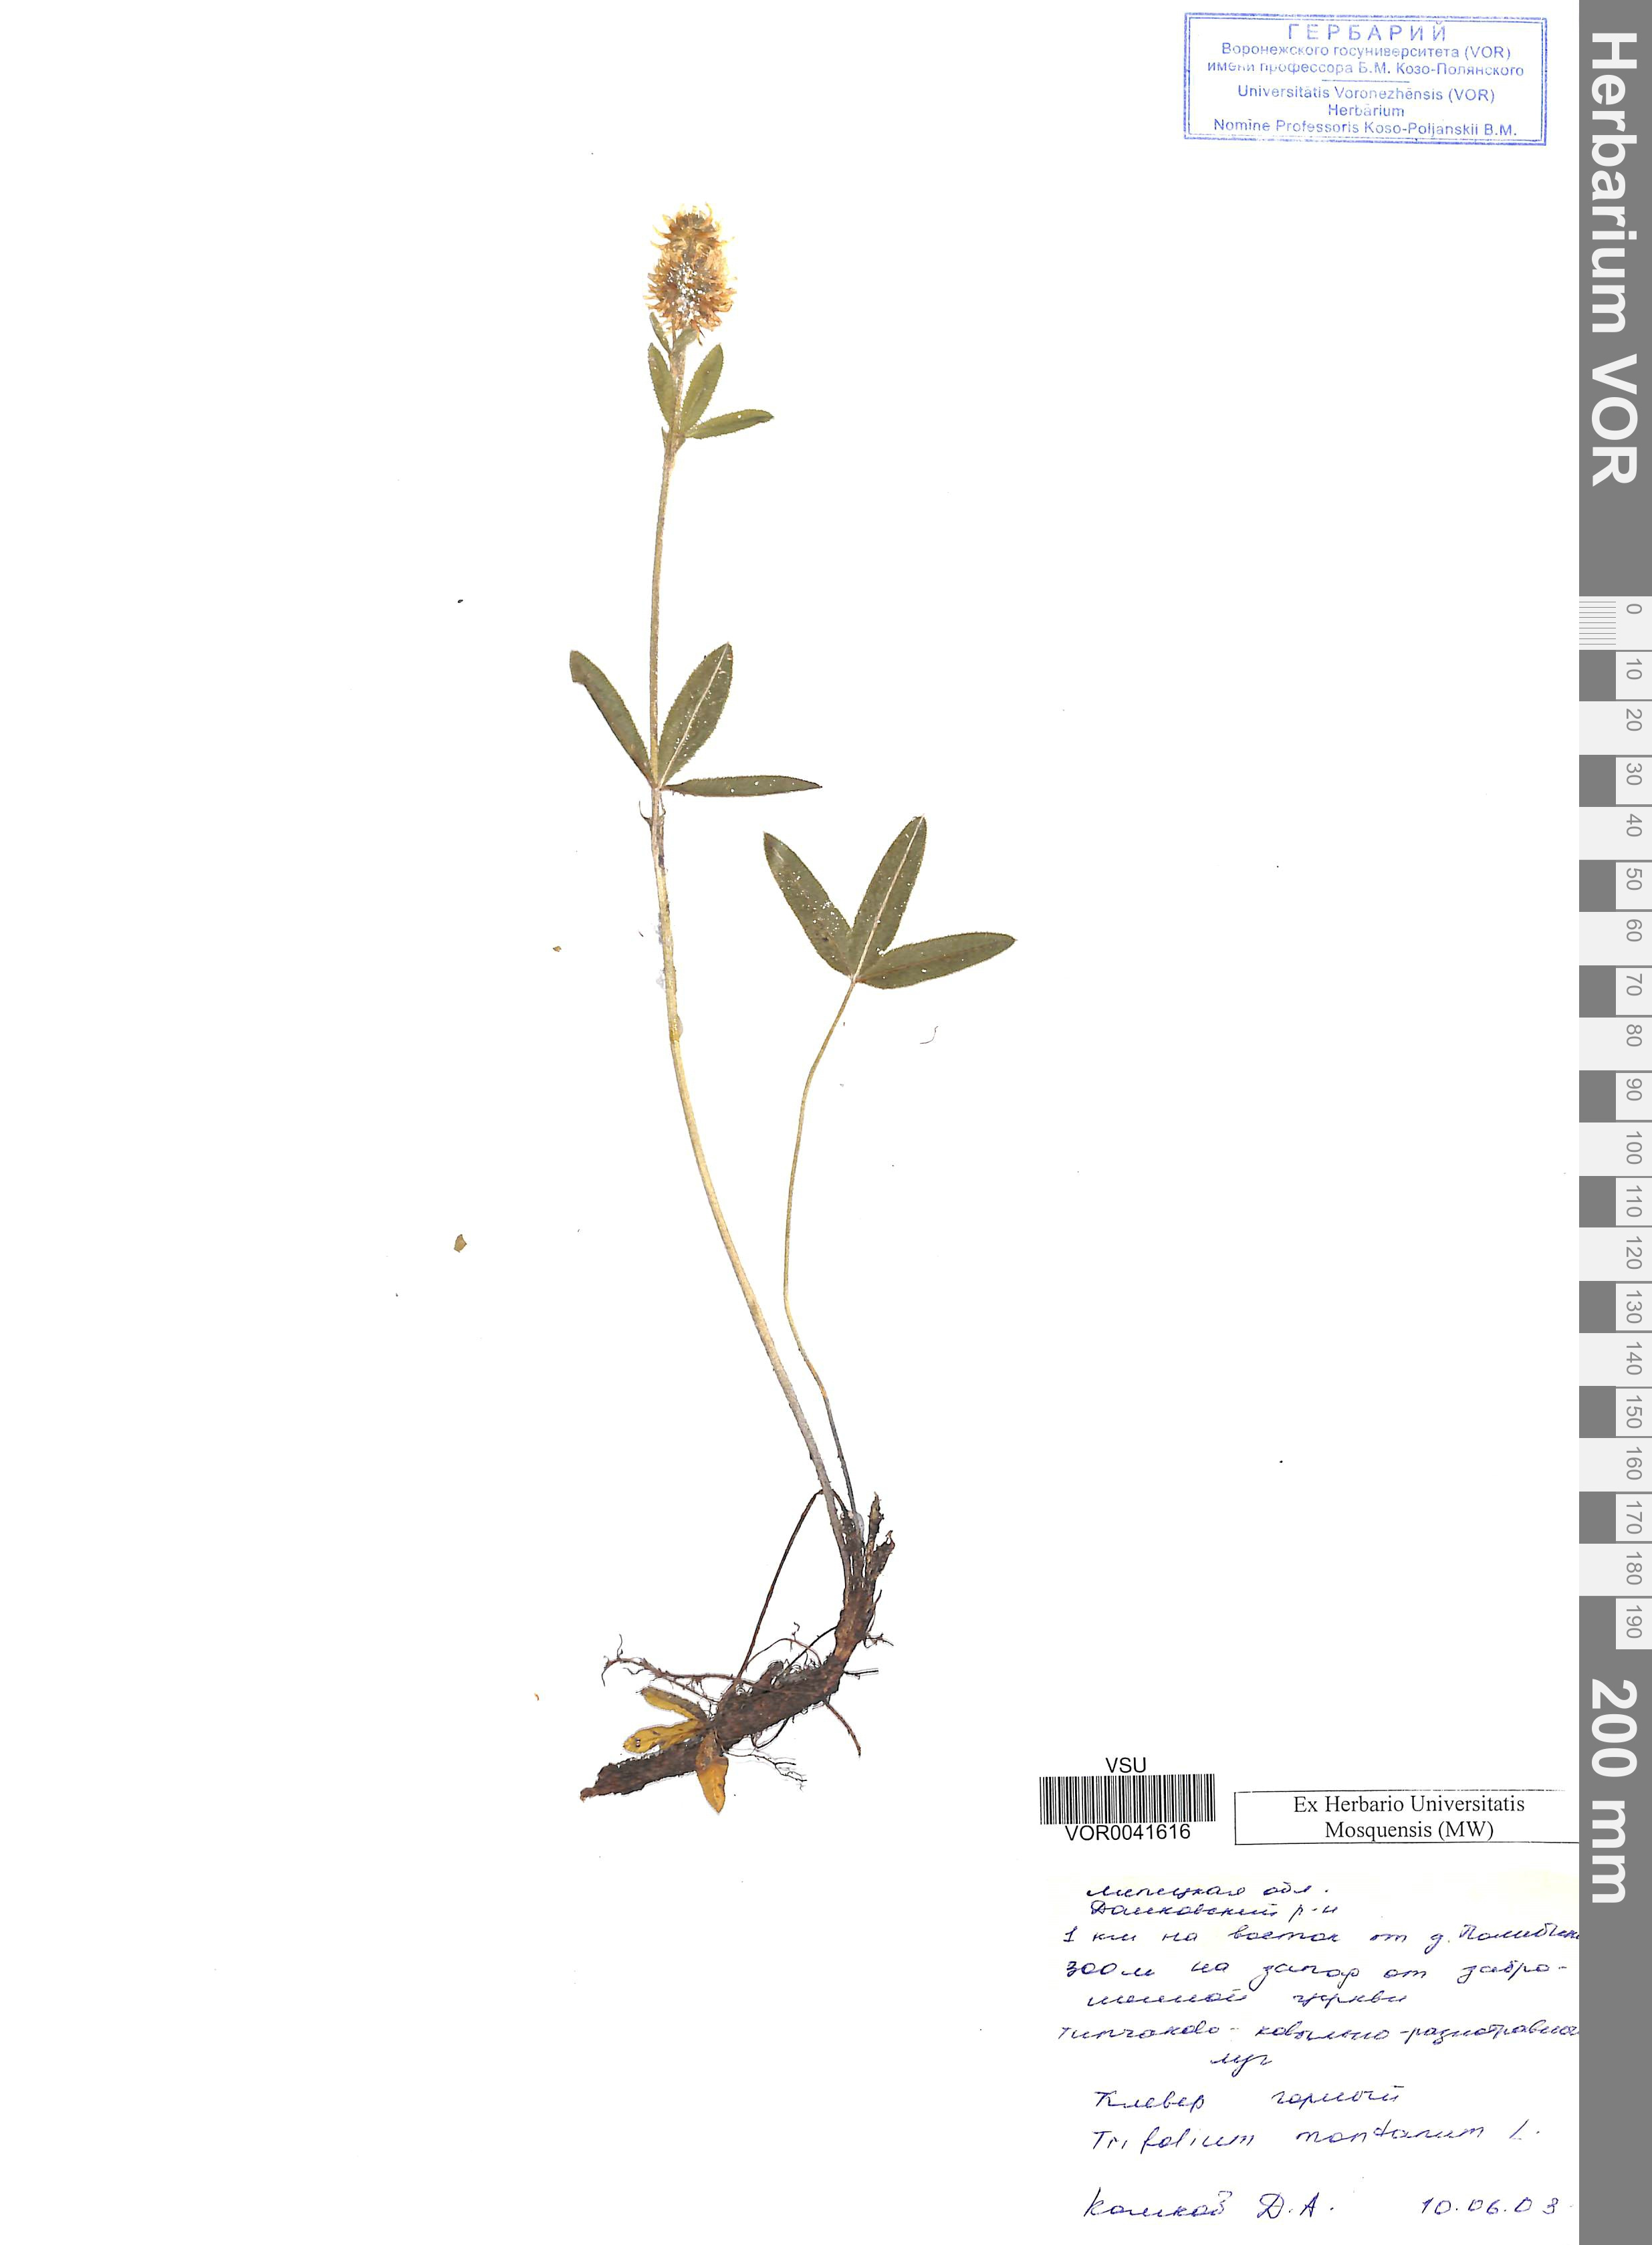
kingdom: Plantae
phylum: Tracheophyta
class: Magnoliopsida
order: Fabales
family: Fabaceae
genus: Trifolium
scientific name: Trifolium montanum
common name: Mountain clover
